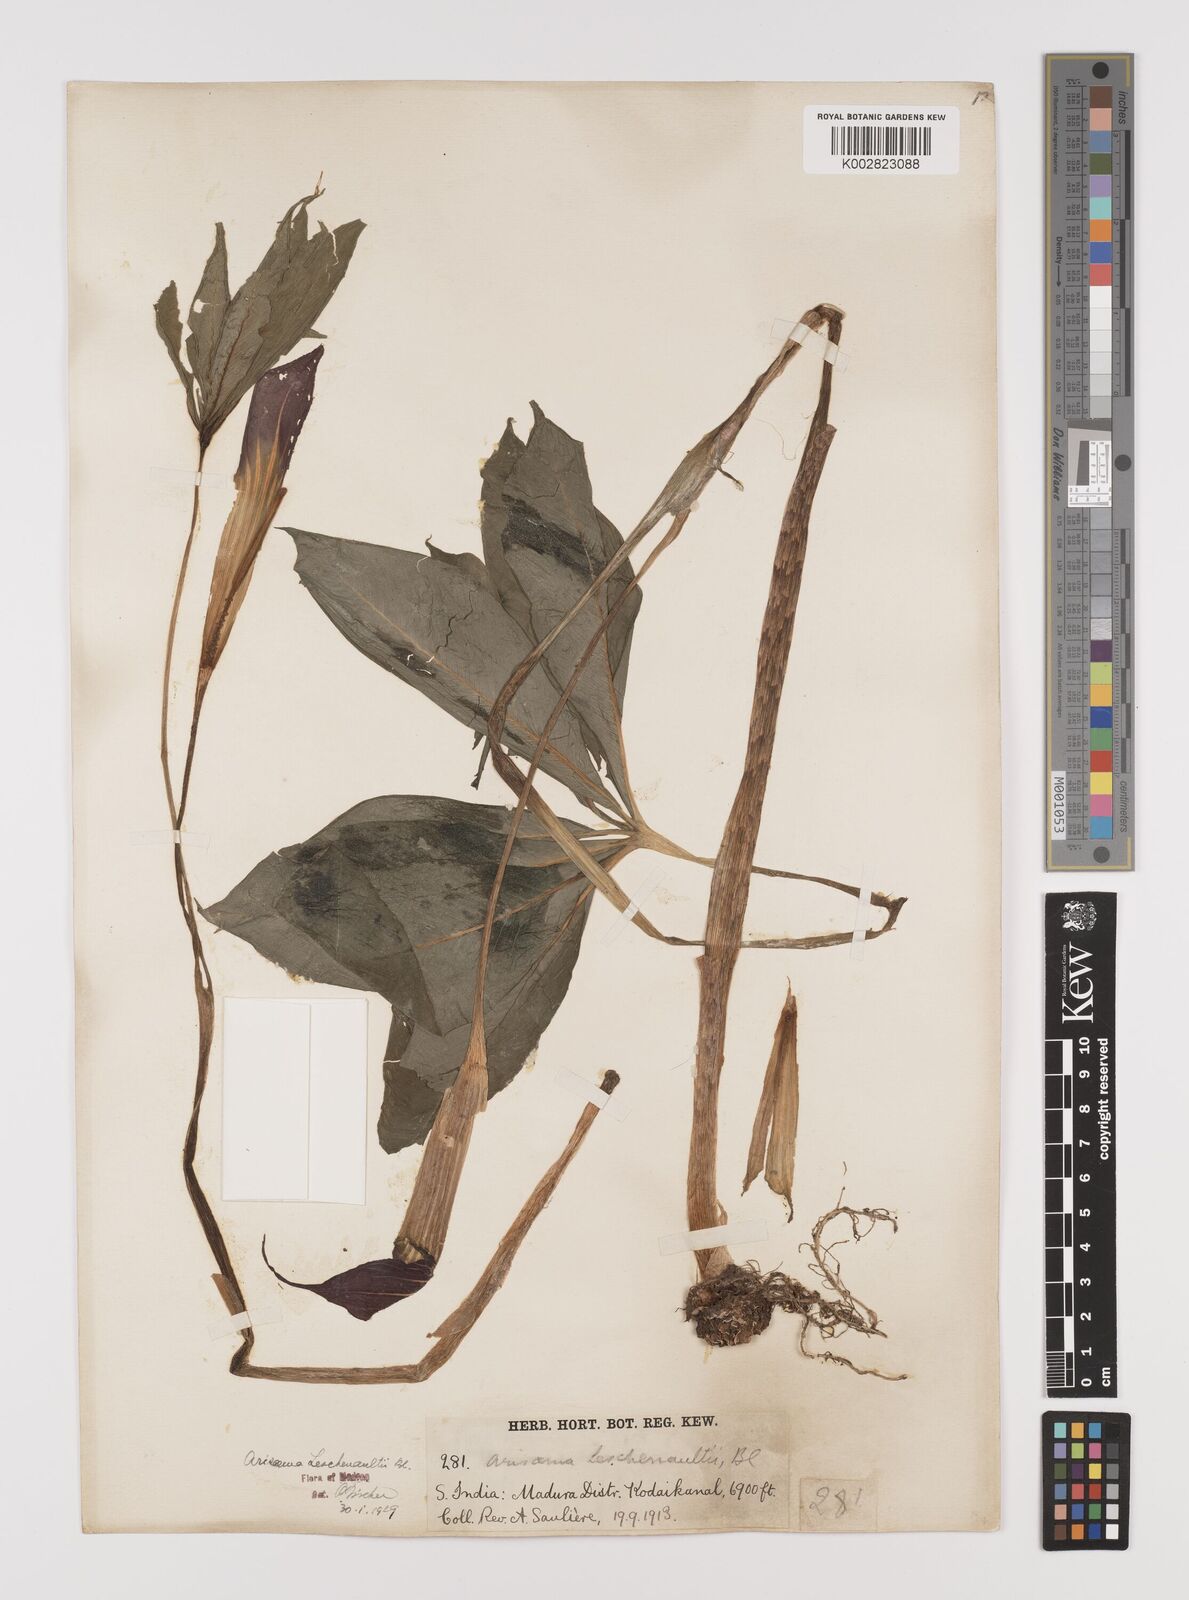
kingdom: Plantae
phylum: Tracheophyta
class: Liliopsida
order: Alismatales
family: Araceae
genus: Arisaema
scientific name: Arisaema leschenaultii
